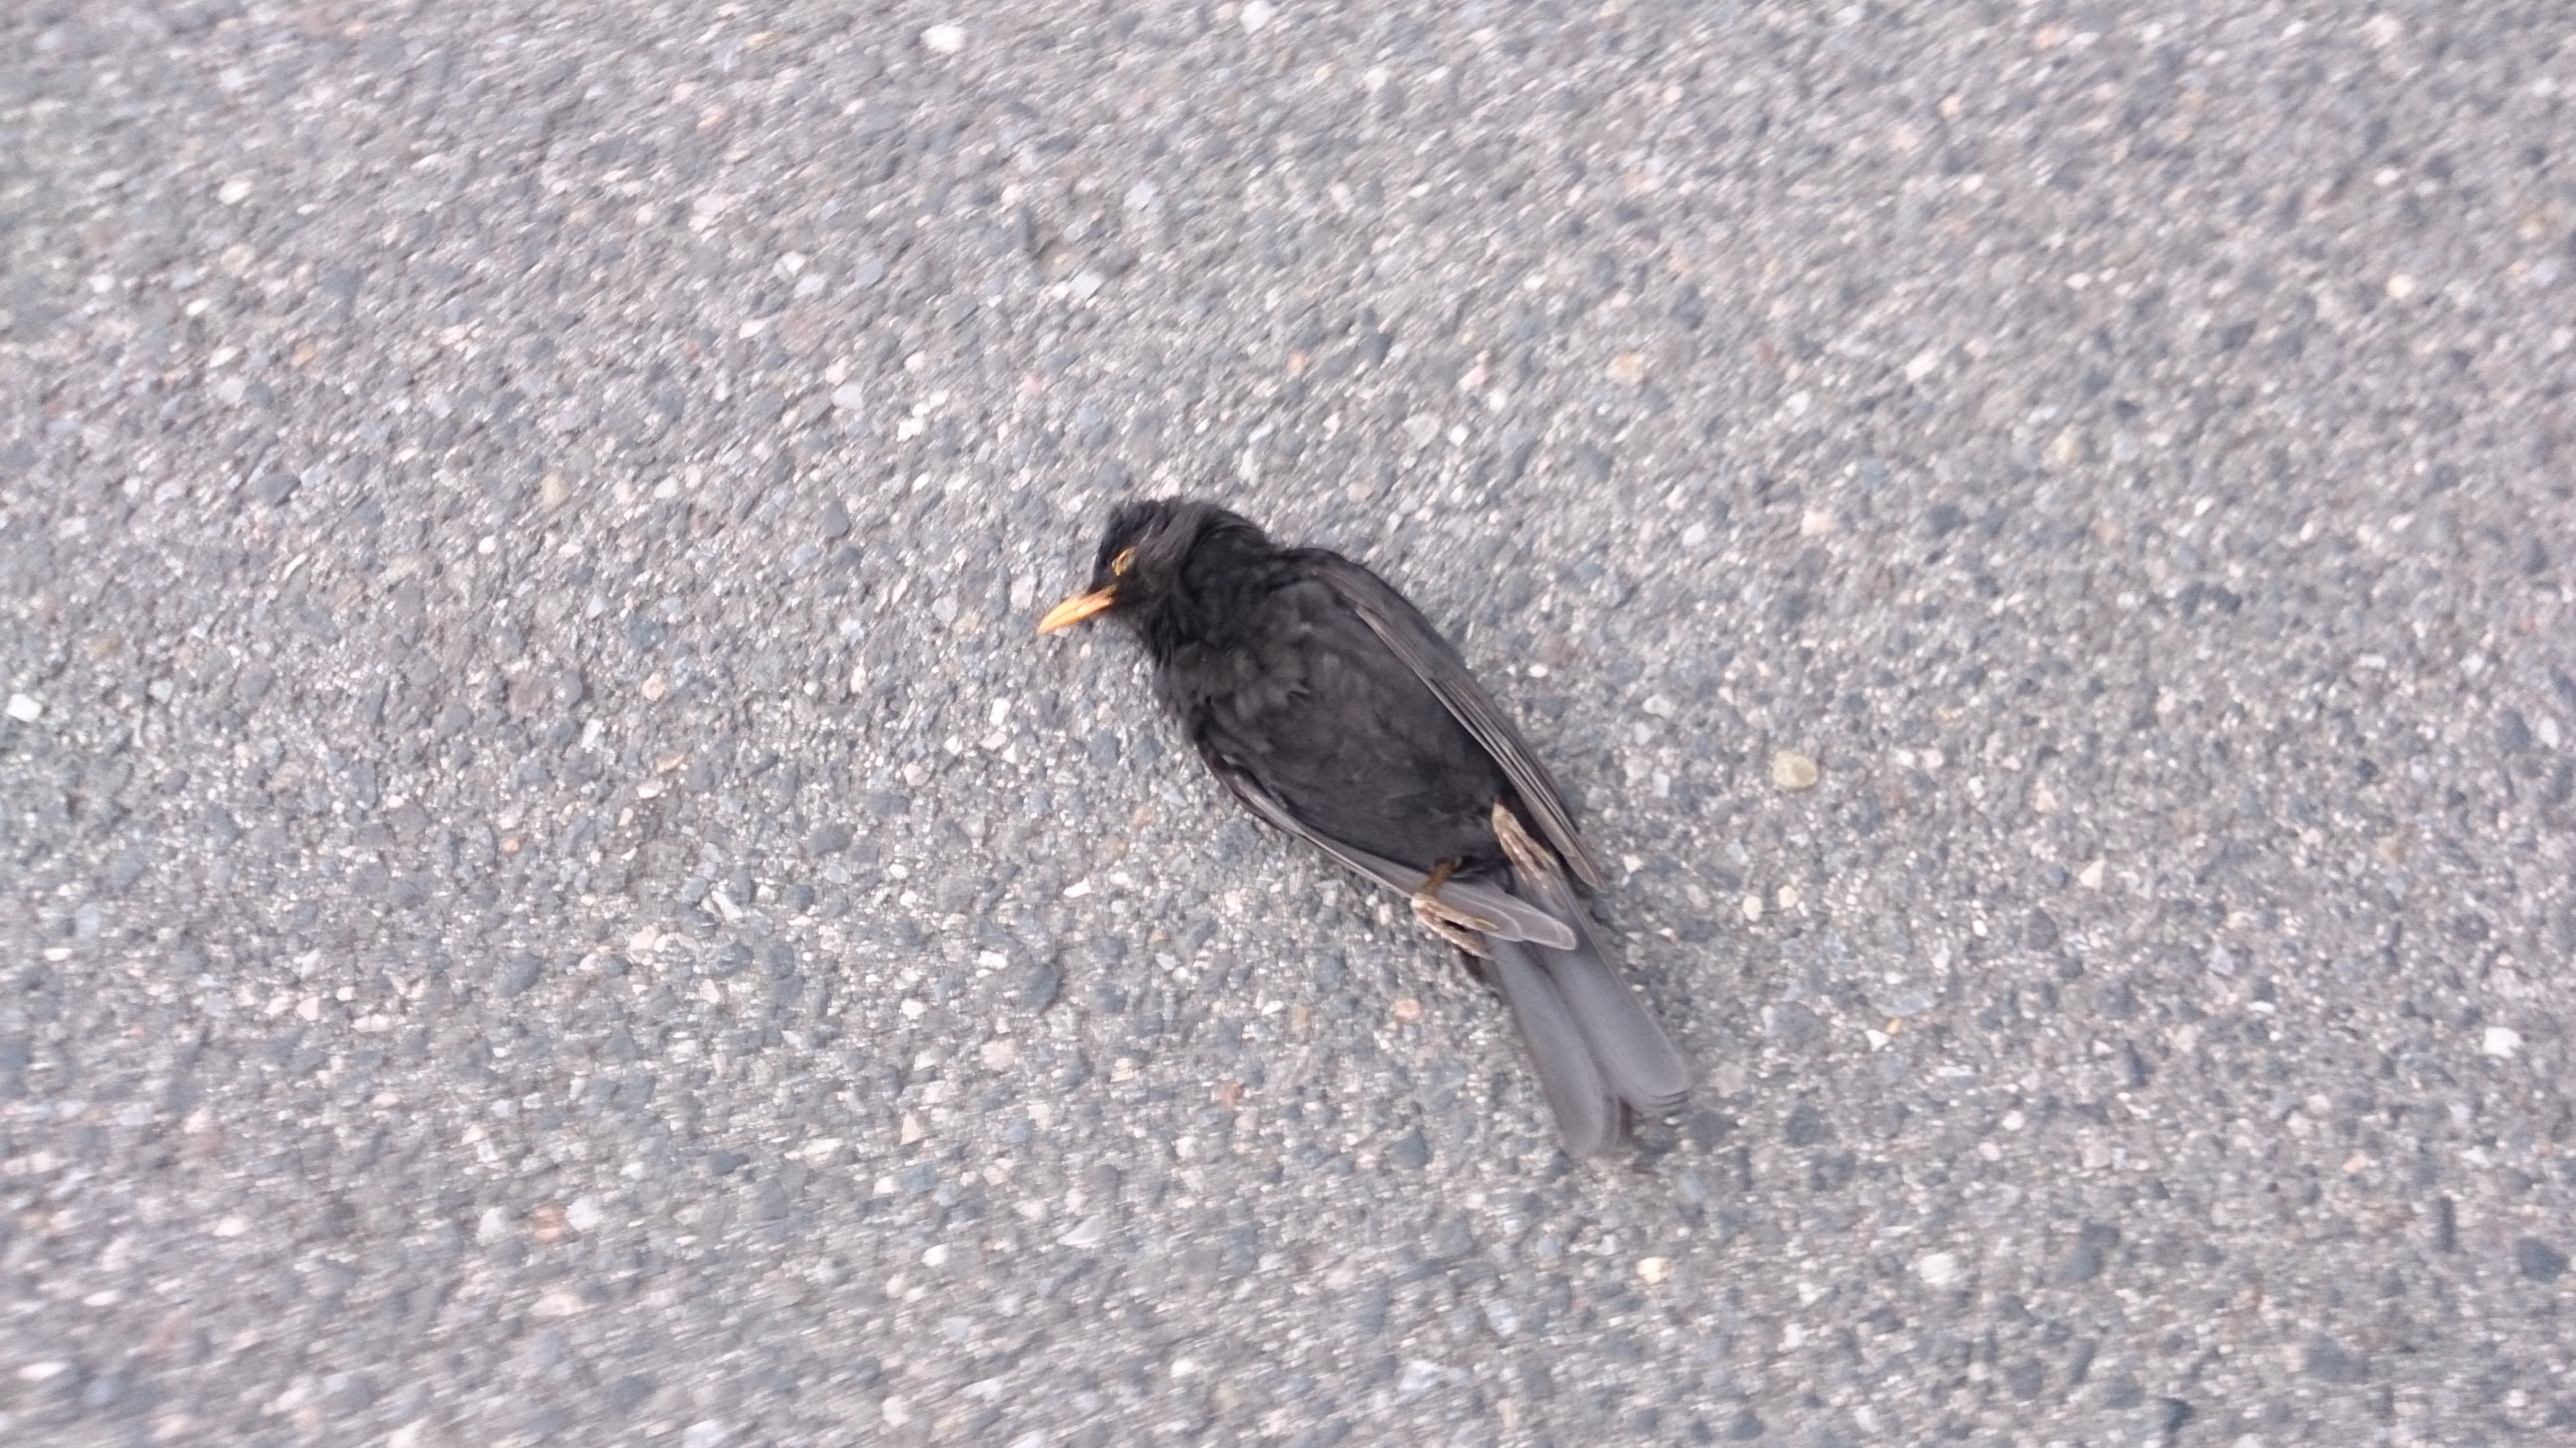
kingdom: Animalia
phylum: Chordata
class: Aves
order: Passeriformes
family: Turdidae
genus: Turdus
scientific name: Turdus merula
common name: Common blackbird
